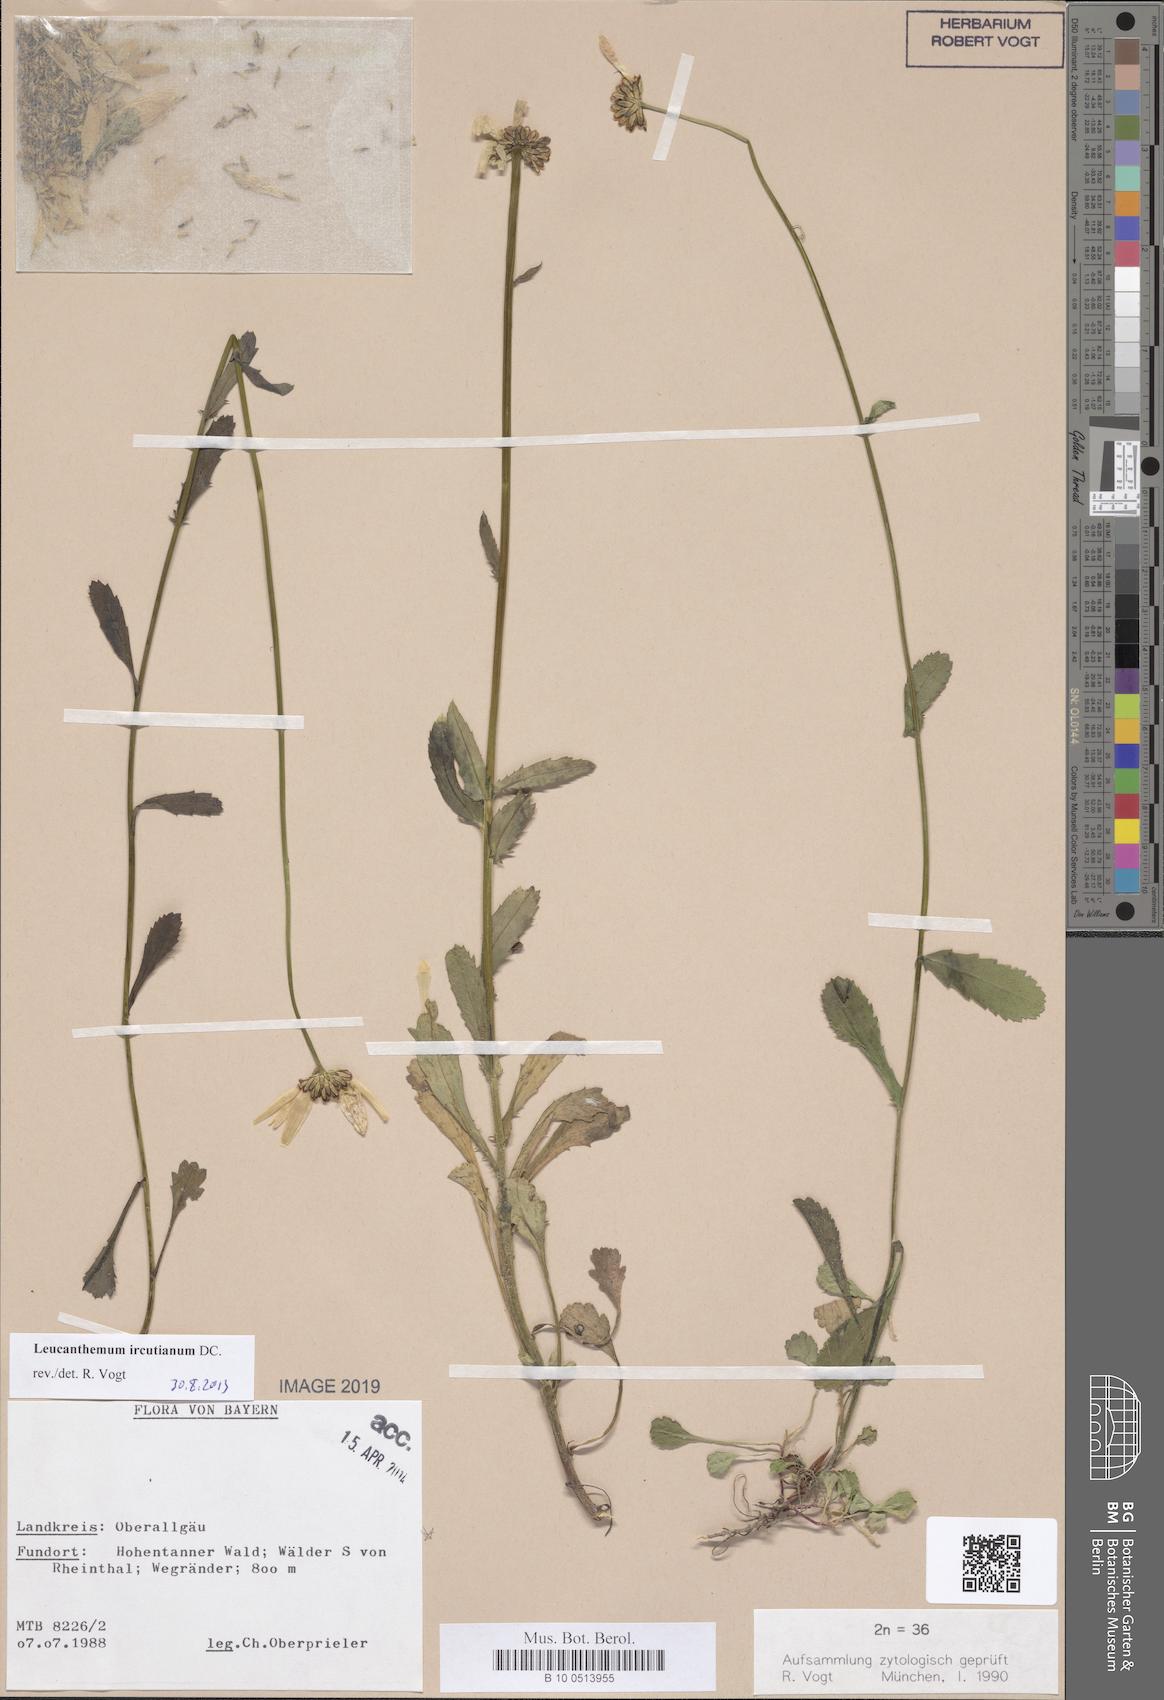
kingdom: Plantae
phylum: Tracheophyta
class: Magnoliopsida
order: Asterales
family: Asteraceae
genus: Leucanthemum
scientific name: Leucanthemum ircutianum
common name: Daisy
